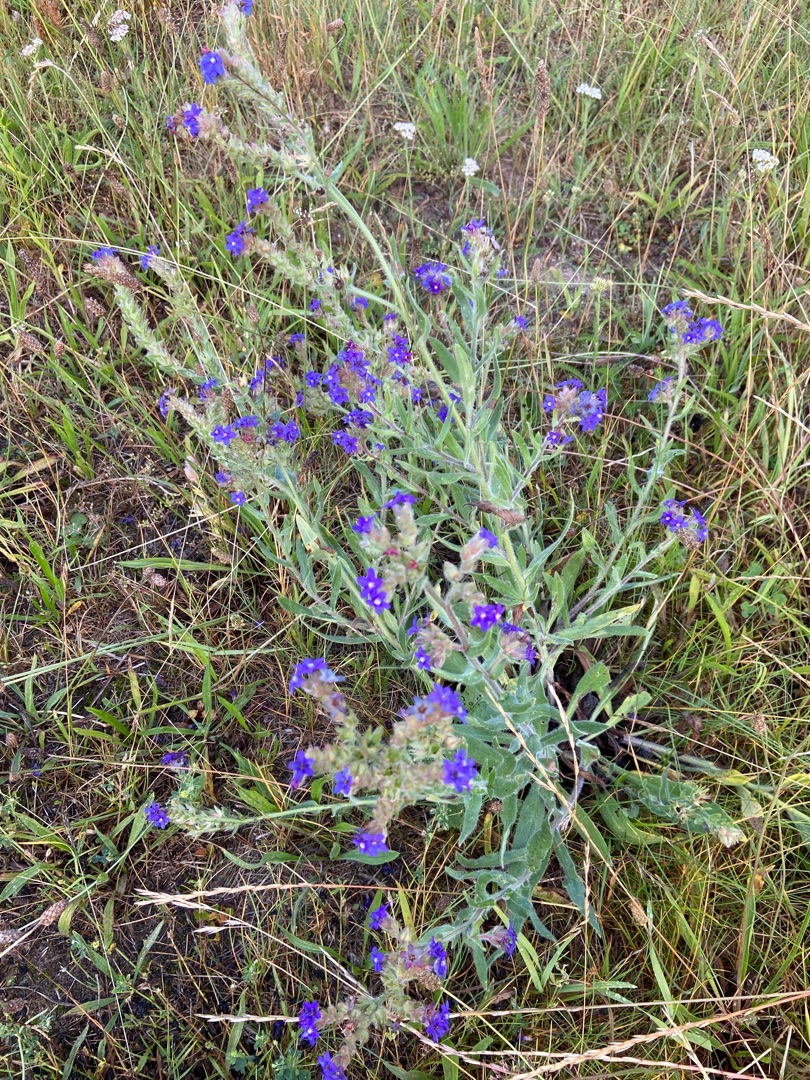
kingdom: Plantae
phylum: Tracheophyta
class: Magnoliopsida
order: Boraginales
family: Boraginaceae
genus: Anchusa
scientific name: Anchusa officinalis
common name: Læge-oksetunge
